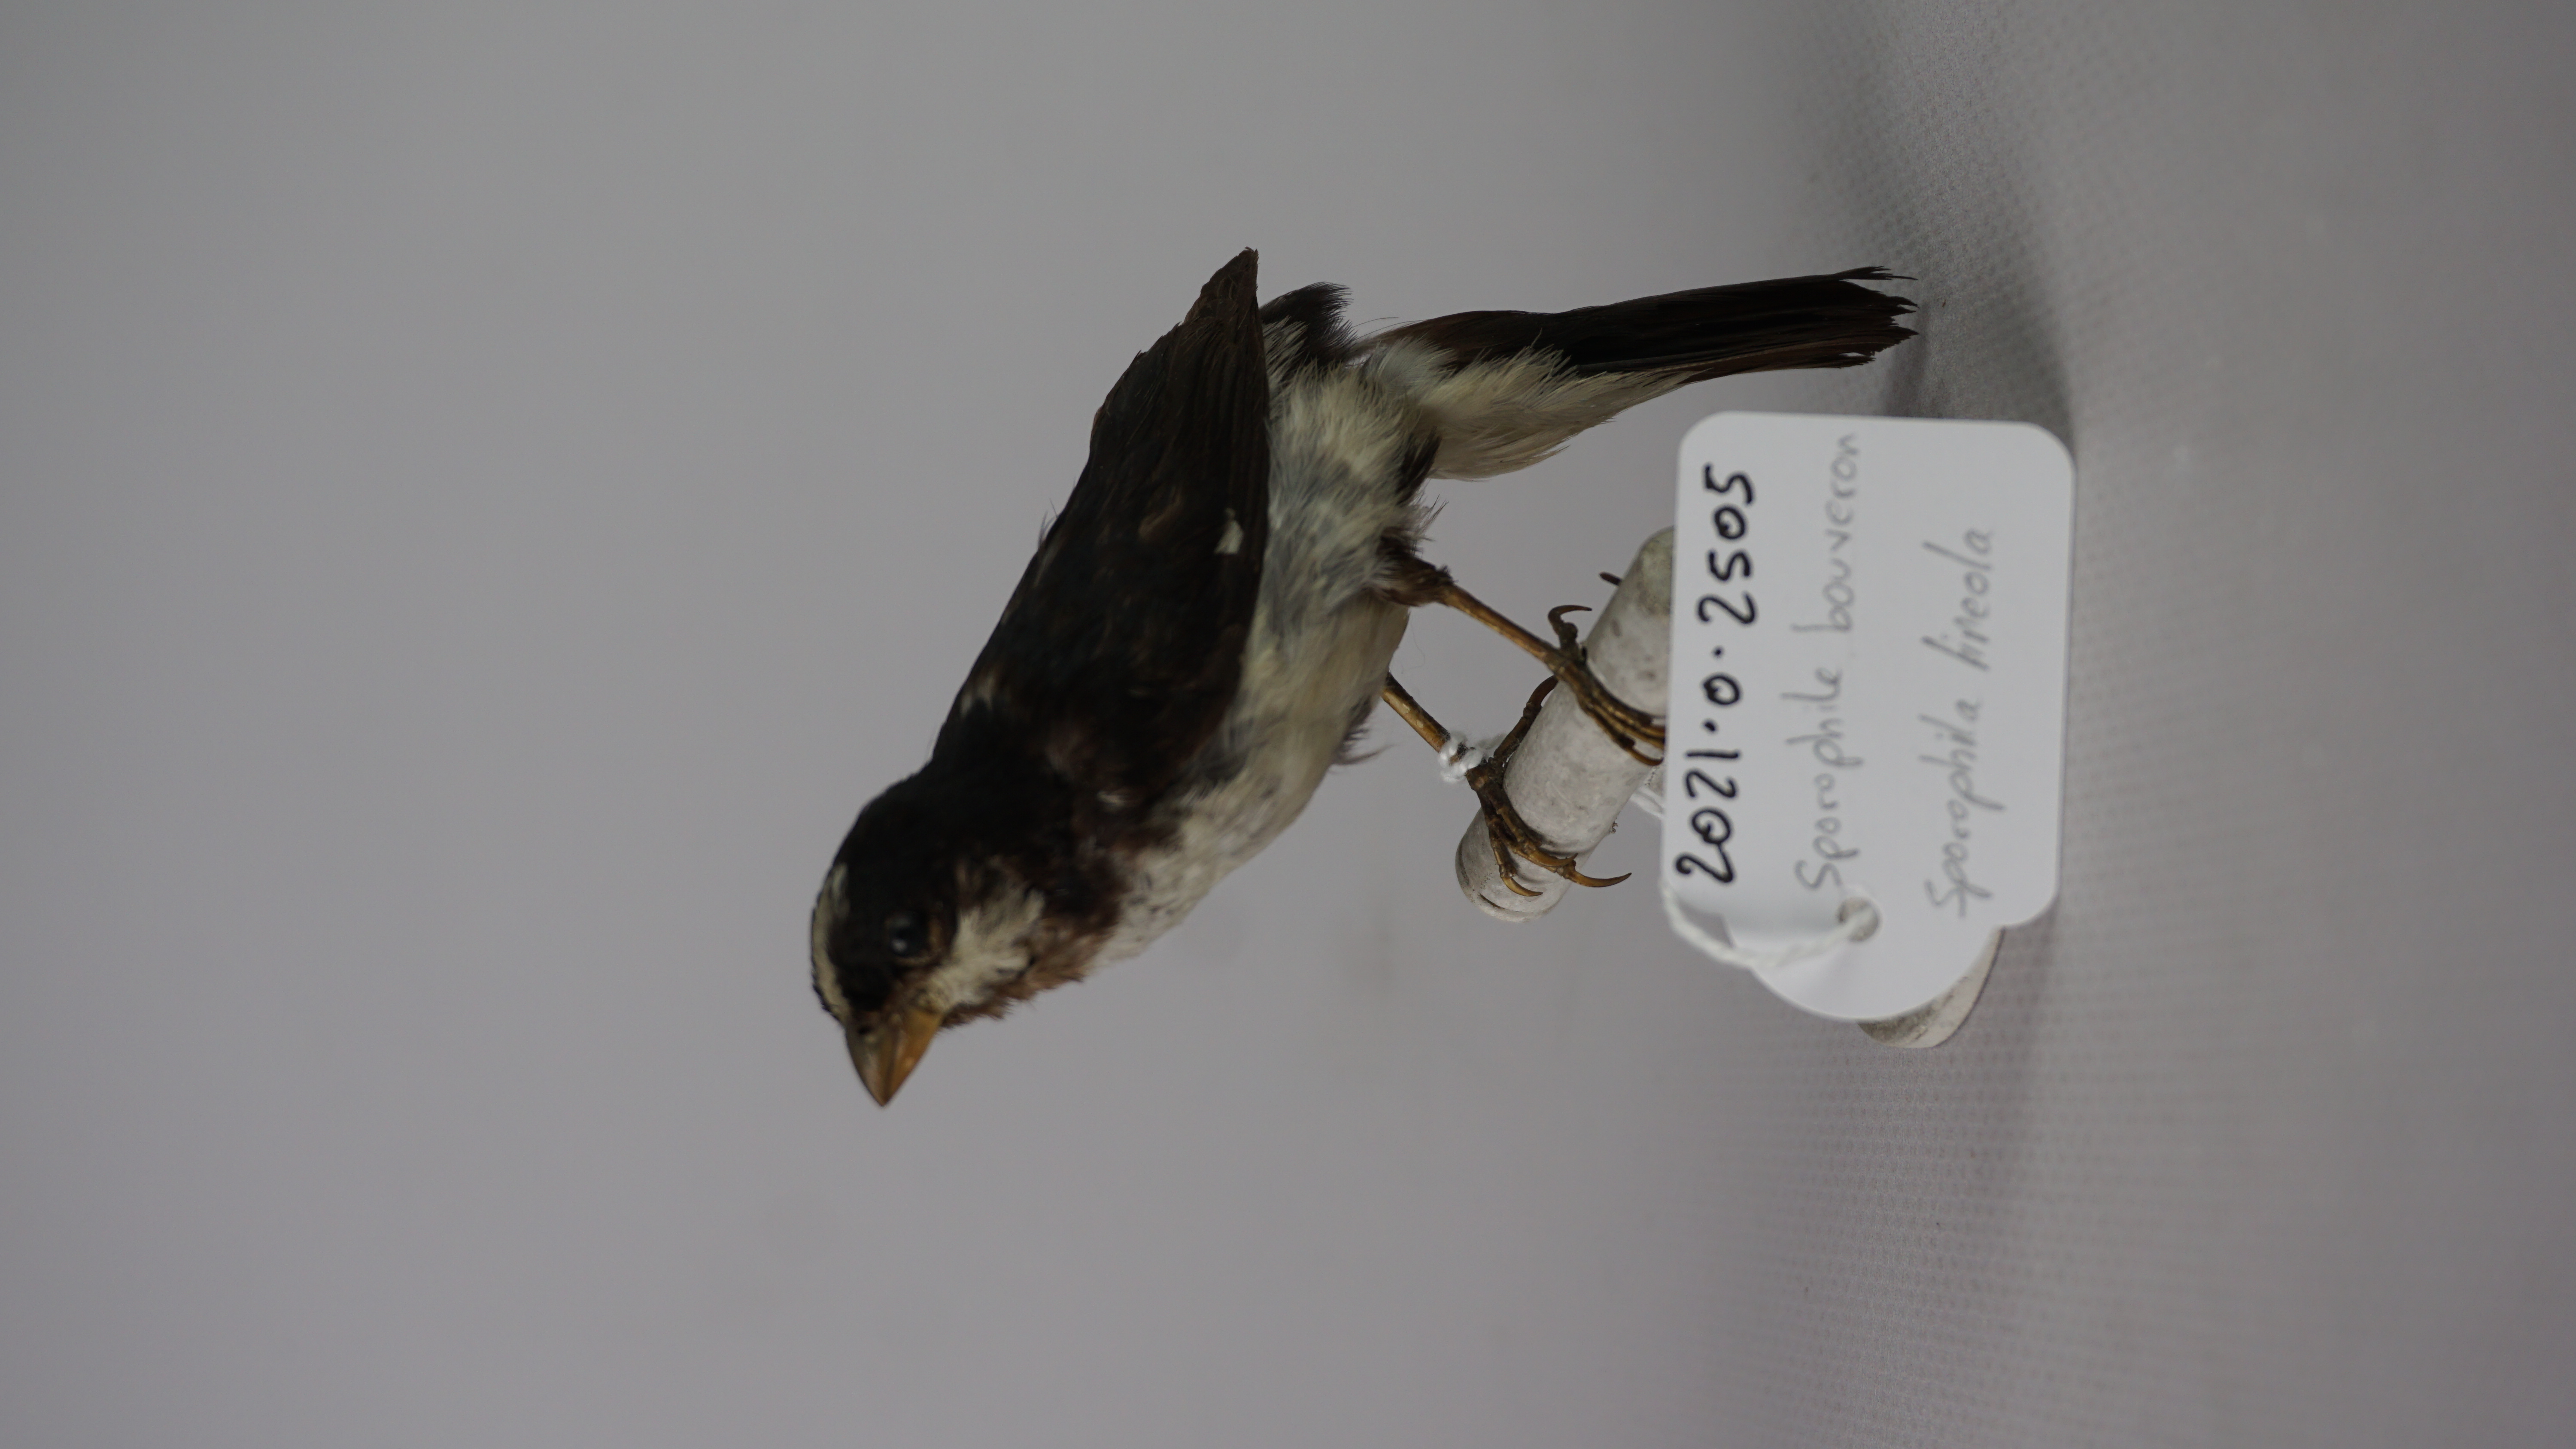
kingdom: Animalia
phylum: Chordata
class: Aves
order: Passeriformes
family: Thraupidae
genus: Sporophila
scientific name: Sporophila lineola
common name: Lined seedeater
